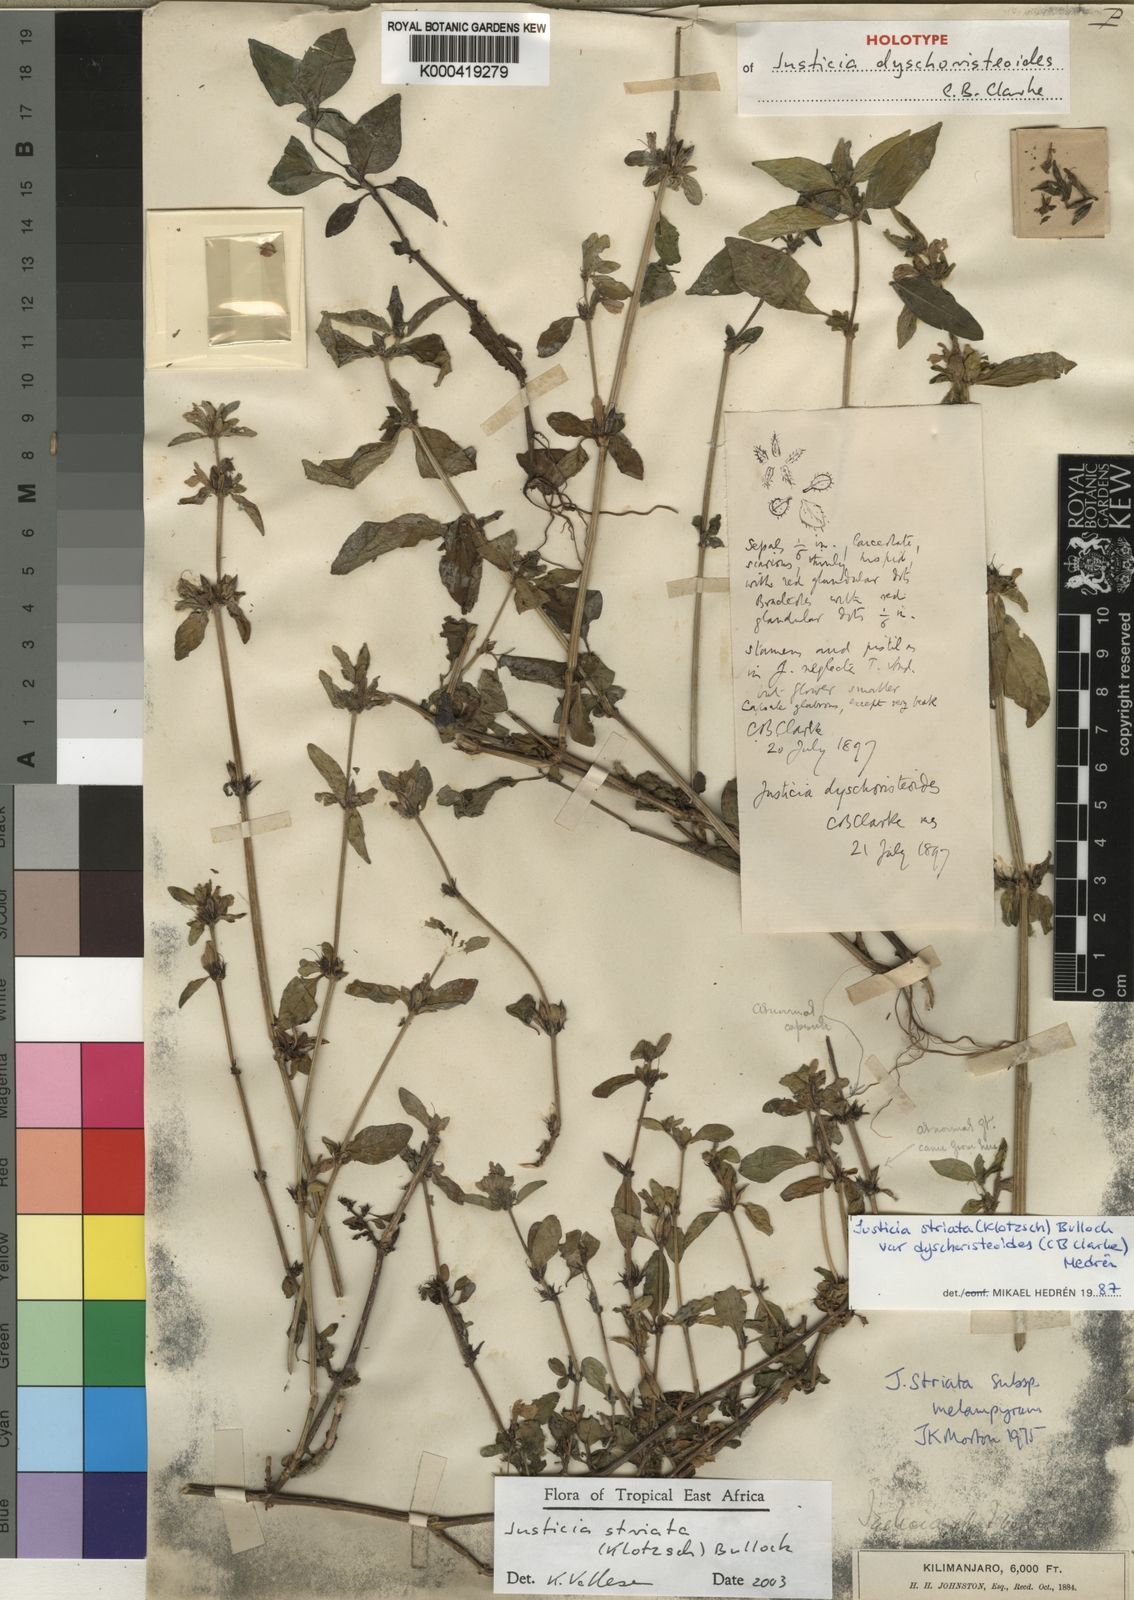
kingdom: Plantae
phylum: Tracheophyta
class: Magnoliopsida
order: Lamiales
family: Acanthaceae
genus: Justicia
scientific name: Justicia striata
